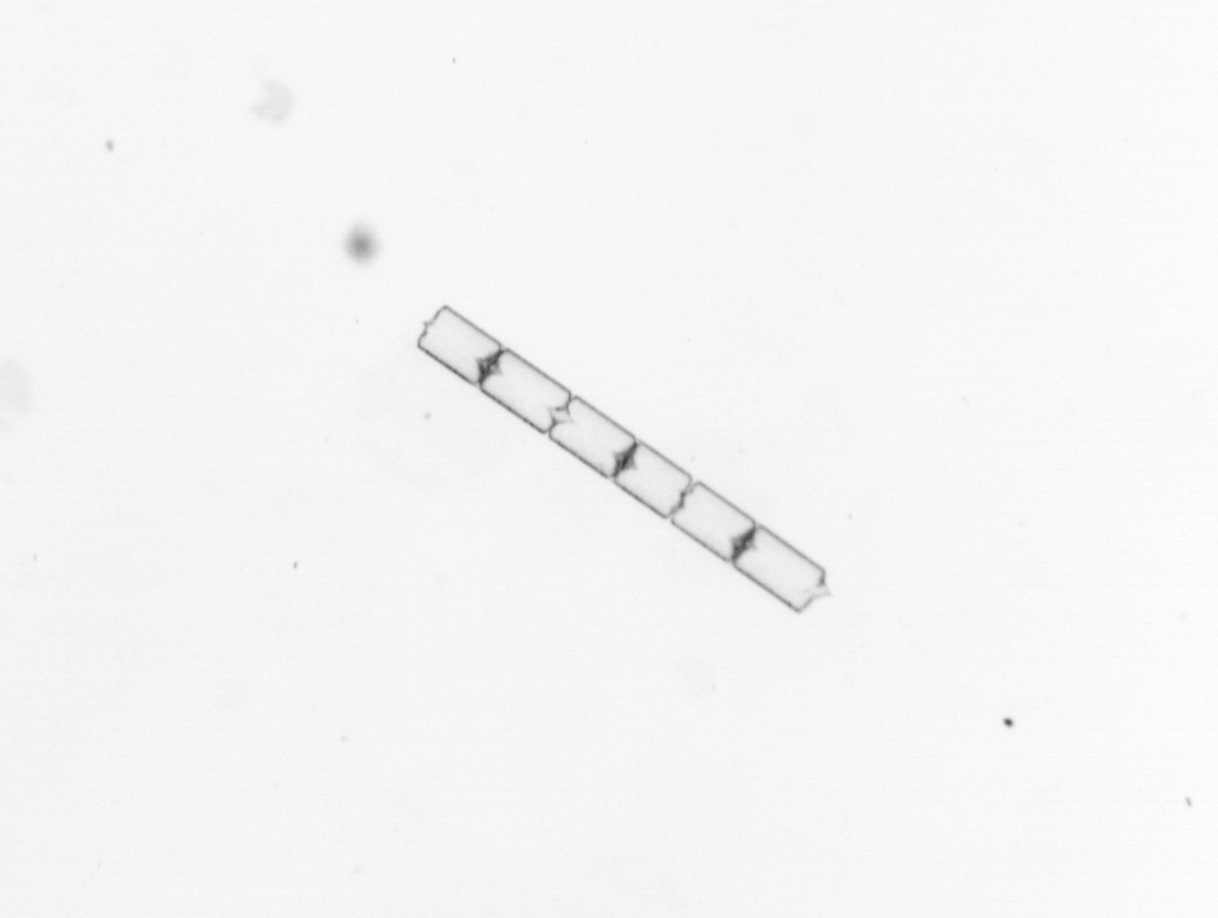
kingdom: Chromista
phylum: Ochrophyta
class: Bacillariophyceae
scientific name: Bacillariophyceae
